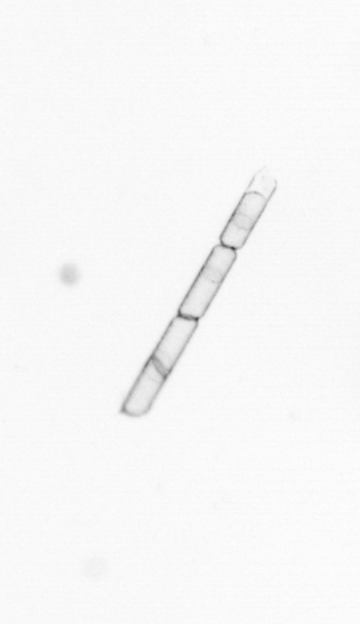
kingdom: Chromista
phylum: Ochrophyta
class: Bacillariophyceae
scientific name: Bacillariophyceae
